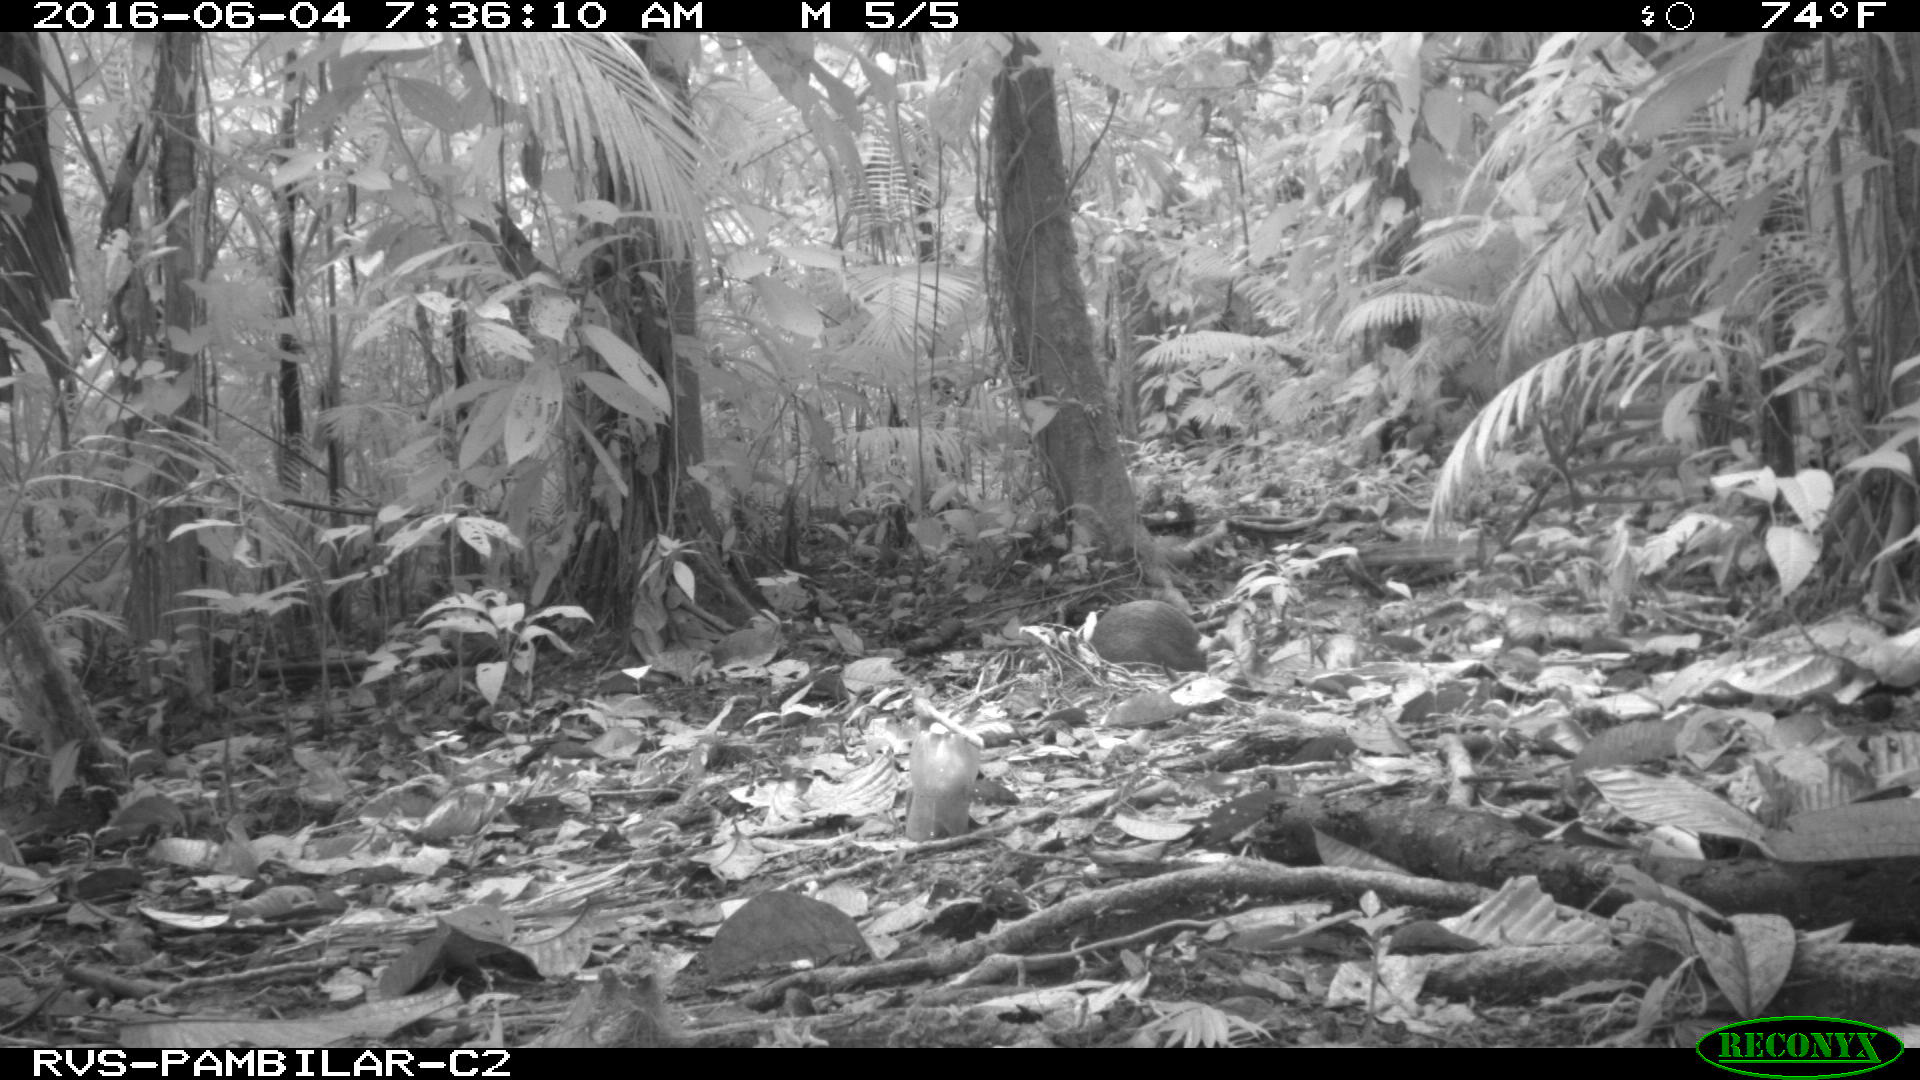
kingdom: Animalia
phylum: Chordata
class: Mammalia
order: Rodentia
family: Dasyproctidae
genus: Dasyprocta
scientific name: Dasyprocta punctata
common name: Central american agouti
